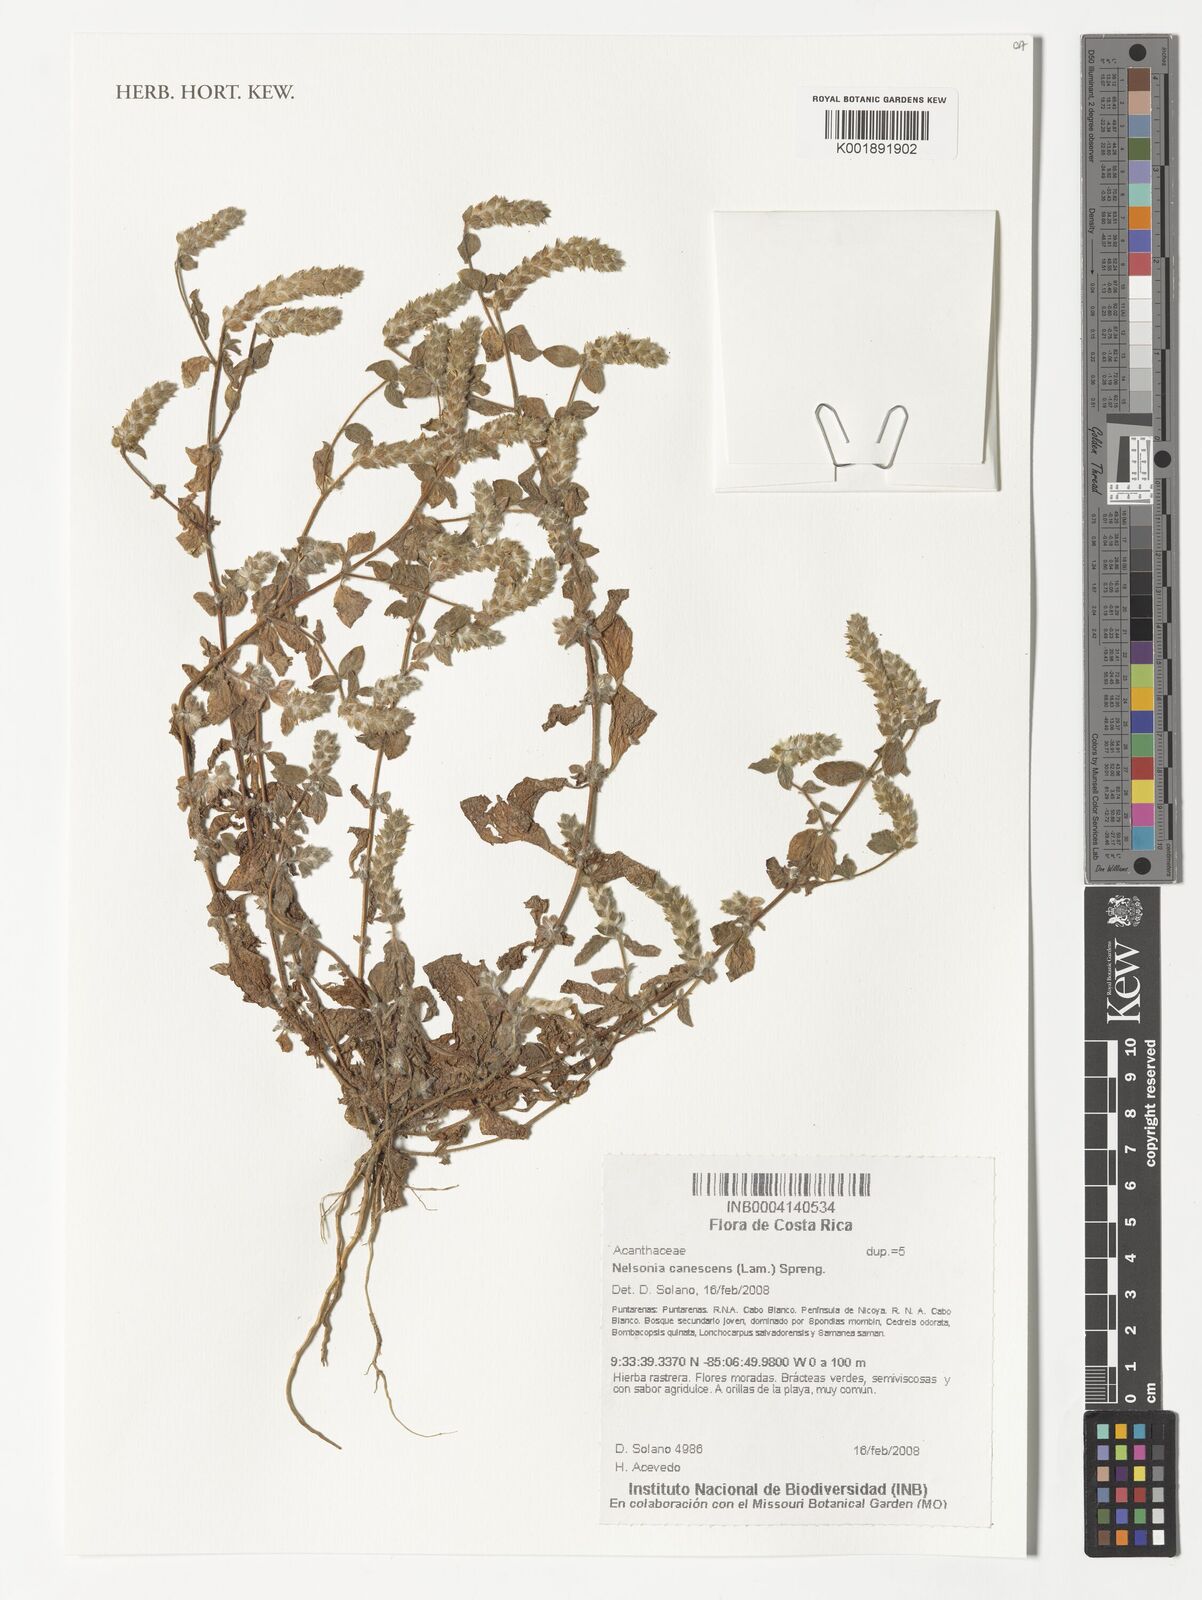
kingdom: Plantae
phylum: Tracheophyta
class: Magnoliopsida
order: Lamiales
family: Acanthaceae
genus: Nelsonia
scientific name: Nelsonia canescens
